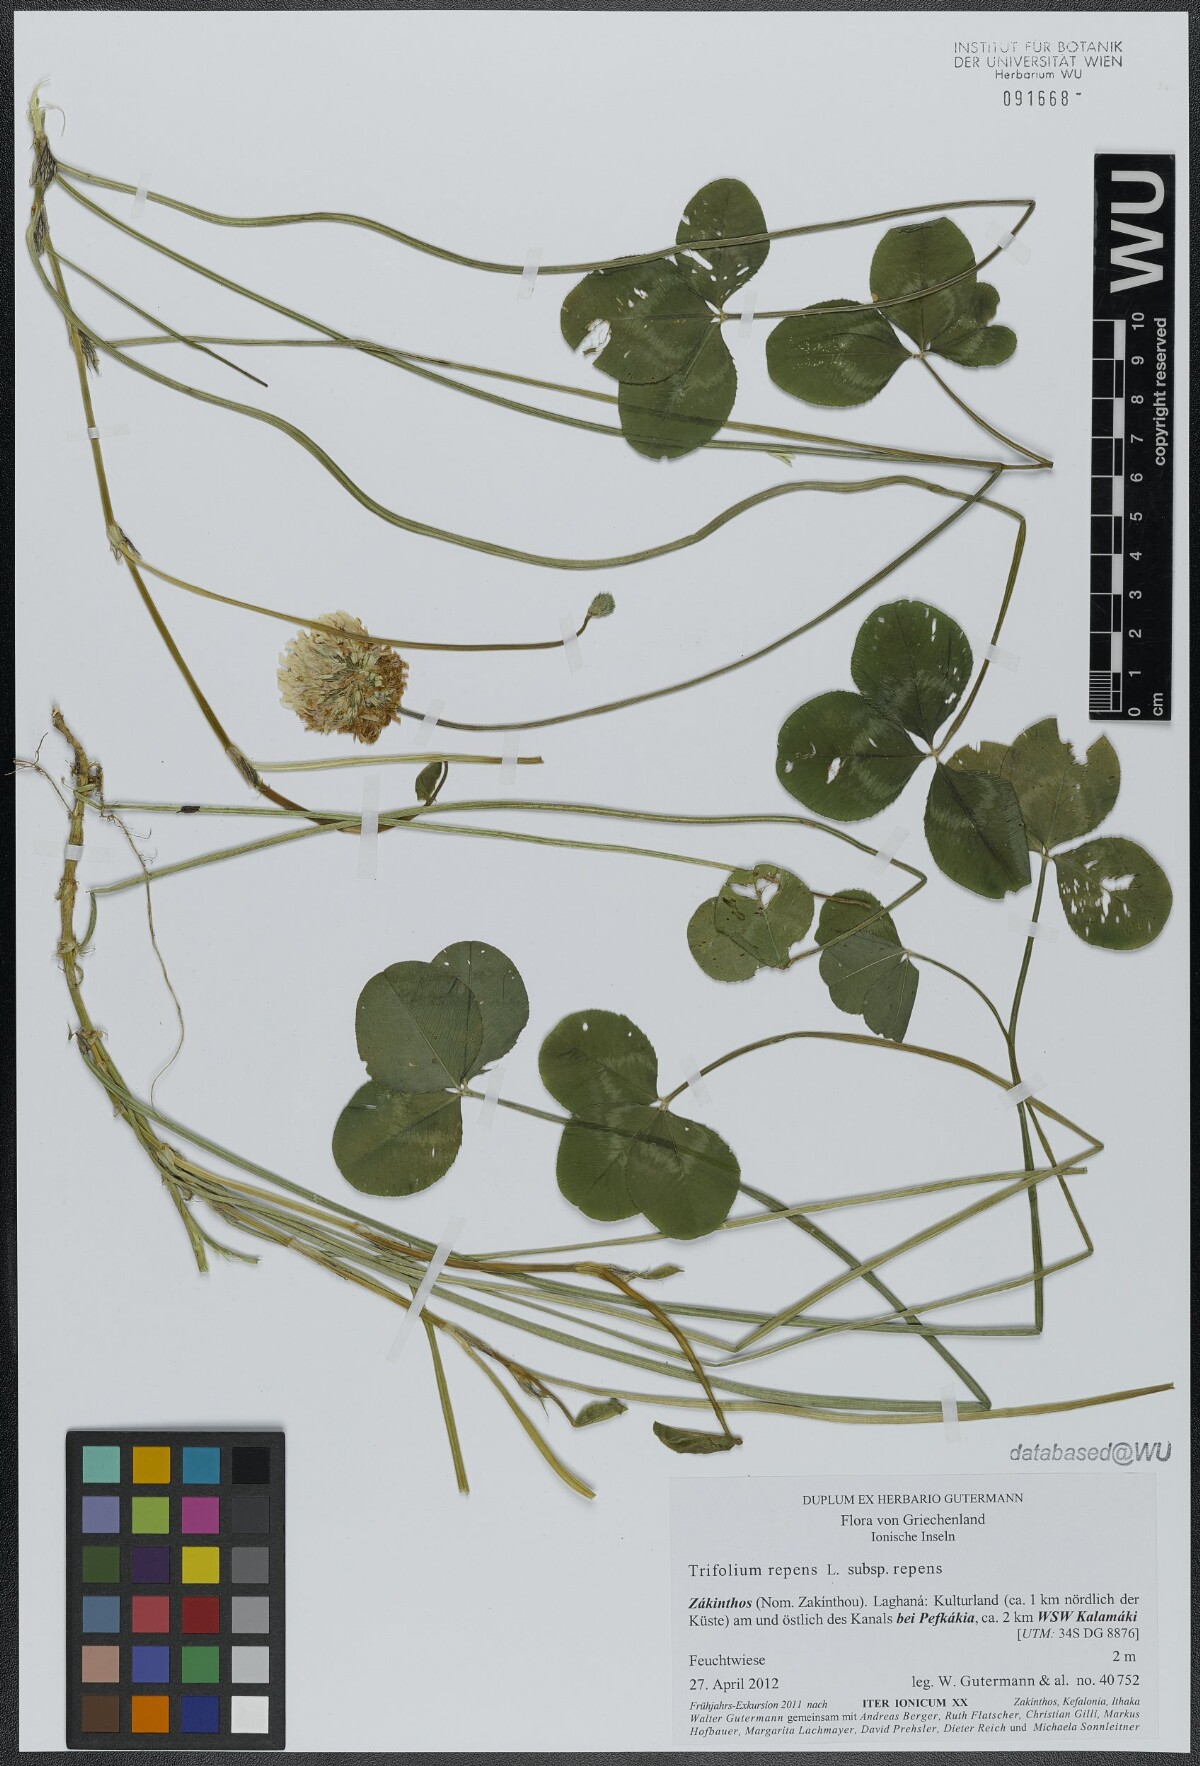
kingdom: Plantae
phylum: Tracheophyta
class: Magnoliopsida
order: Fabales
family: Fabaceae
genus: Trifolium
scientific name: Trifolium repens
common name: White clover
